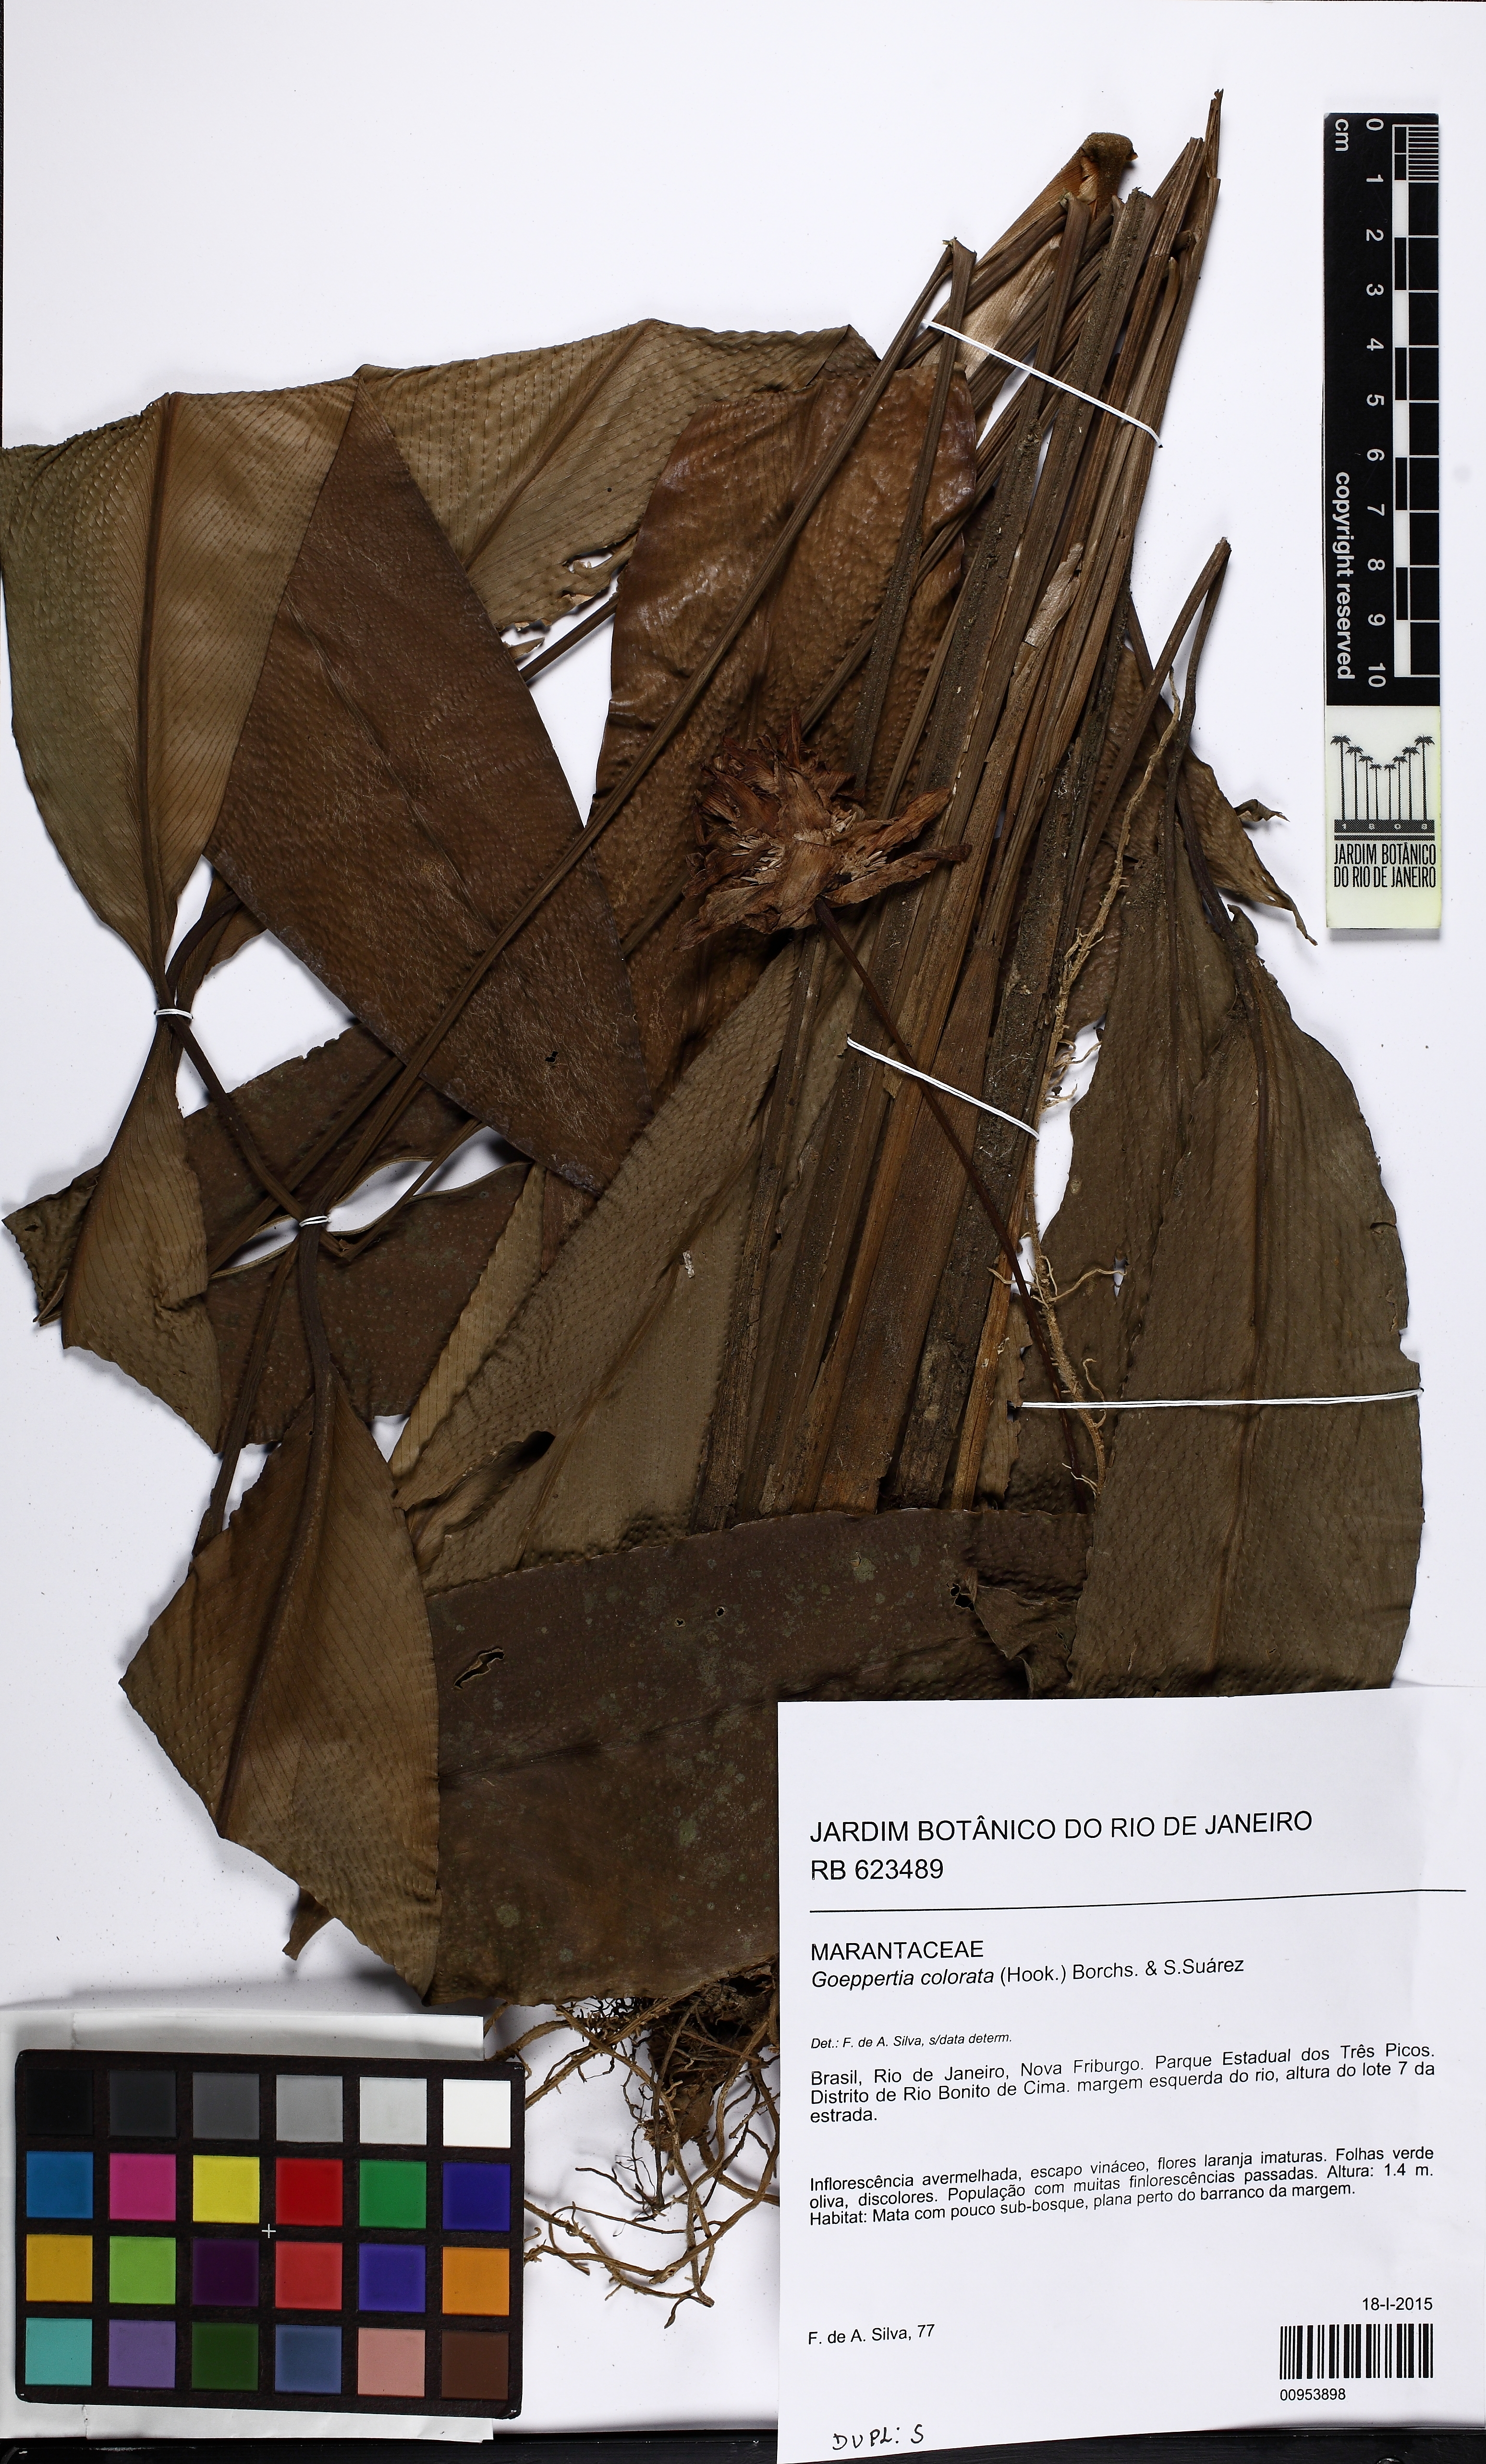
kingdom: Plantae
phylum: Tracheophyta
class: Liliopsida
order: Zingiberales
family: Marantaceae
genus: Goeppertia
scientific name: Goeppertia colorata
